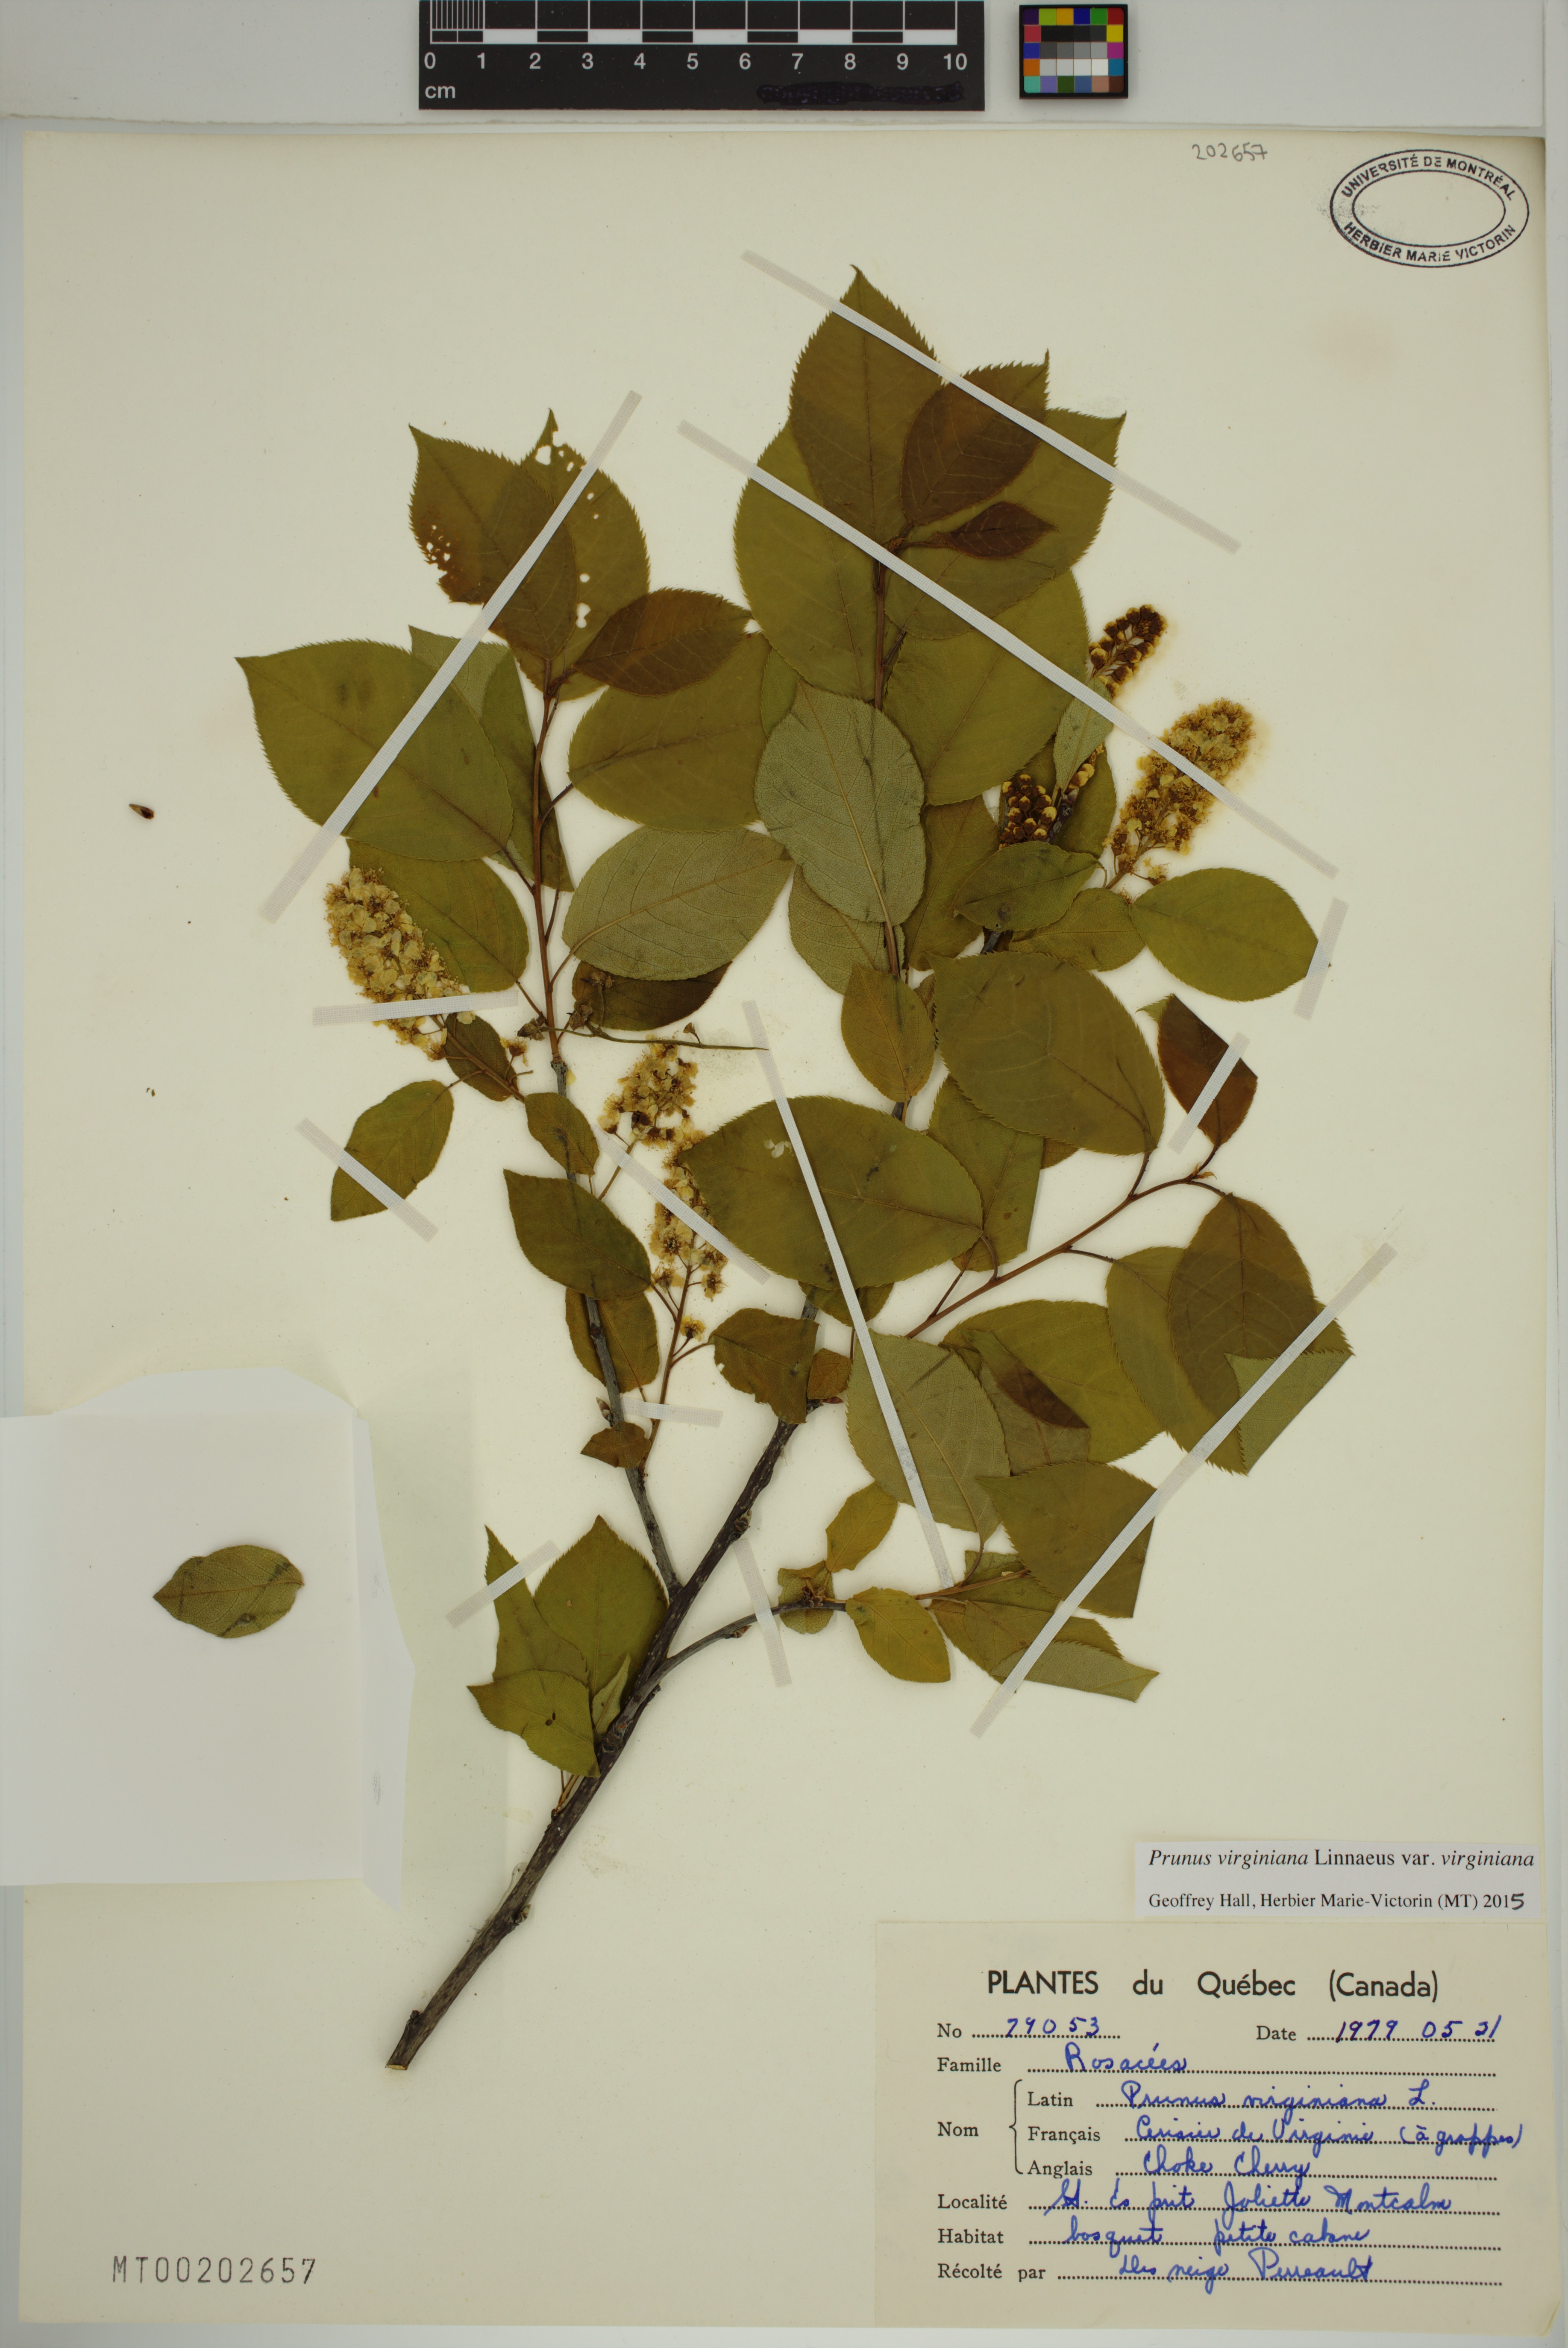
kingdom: Plantae
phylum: Tracheophyta
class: Magnoliopsida
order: Rosales
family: Rosaceae
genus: Prunus
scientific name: Prunus virginiana
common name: Chokecherry
